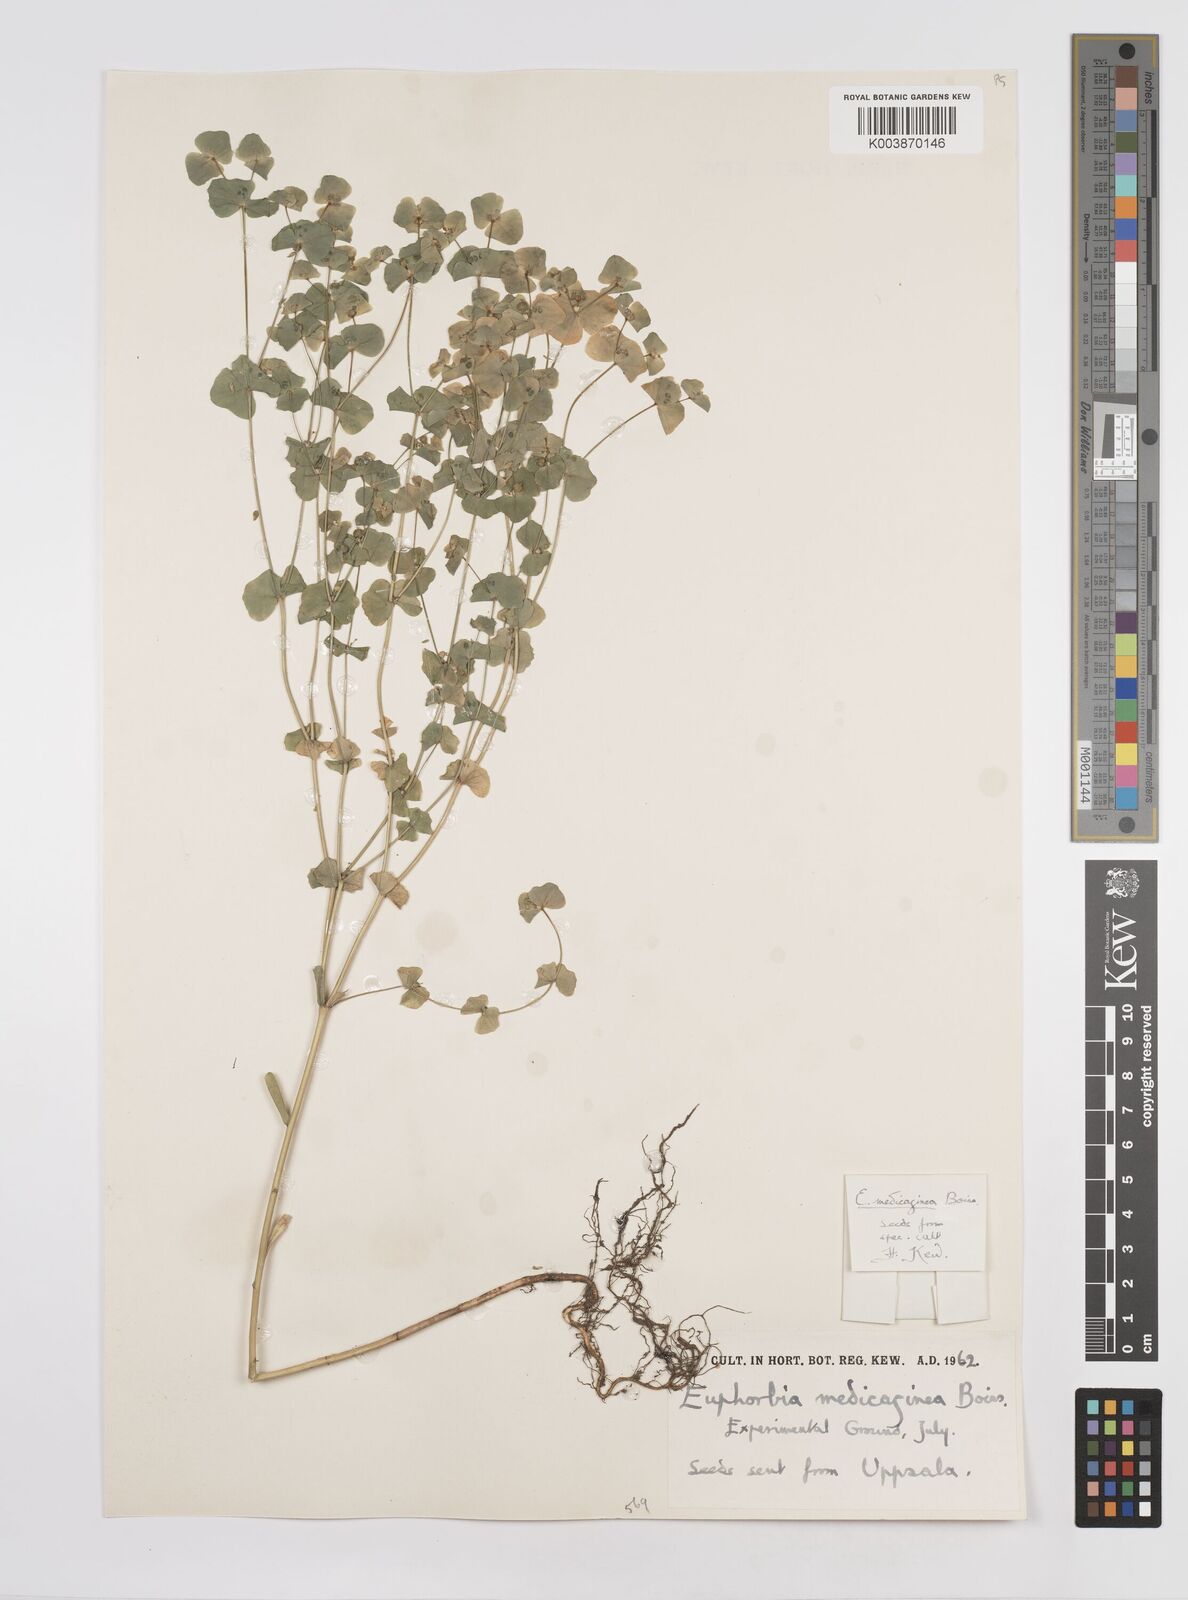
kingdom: Plantae
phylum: Tracheophyta
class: Magnoliopsida
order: Malpighiales
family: Euphorbiaceae
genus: Euphorbia
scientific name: Euphorbia medicaginea
